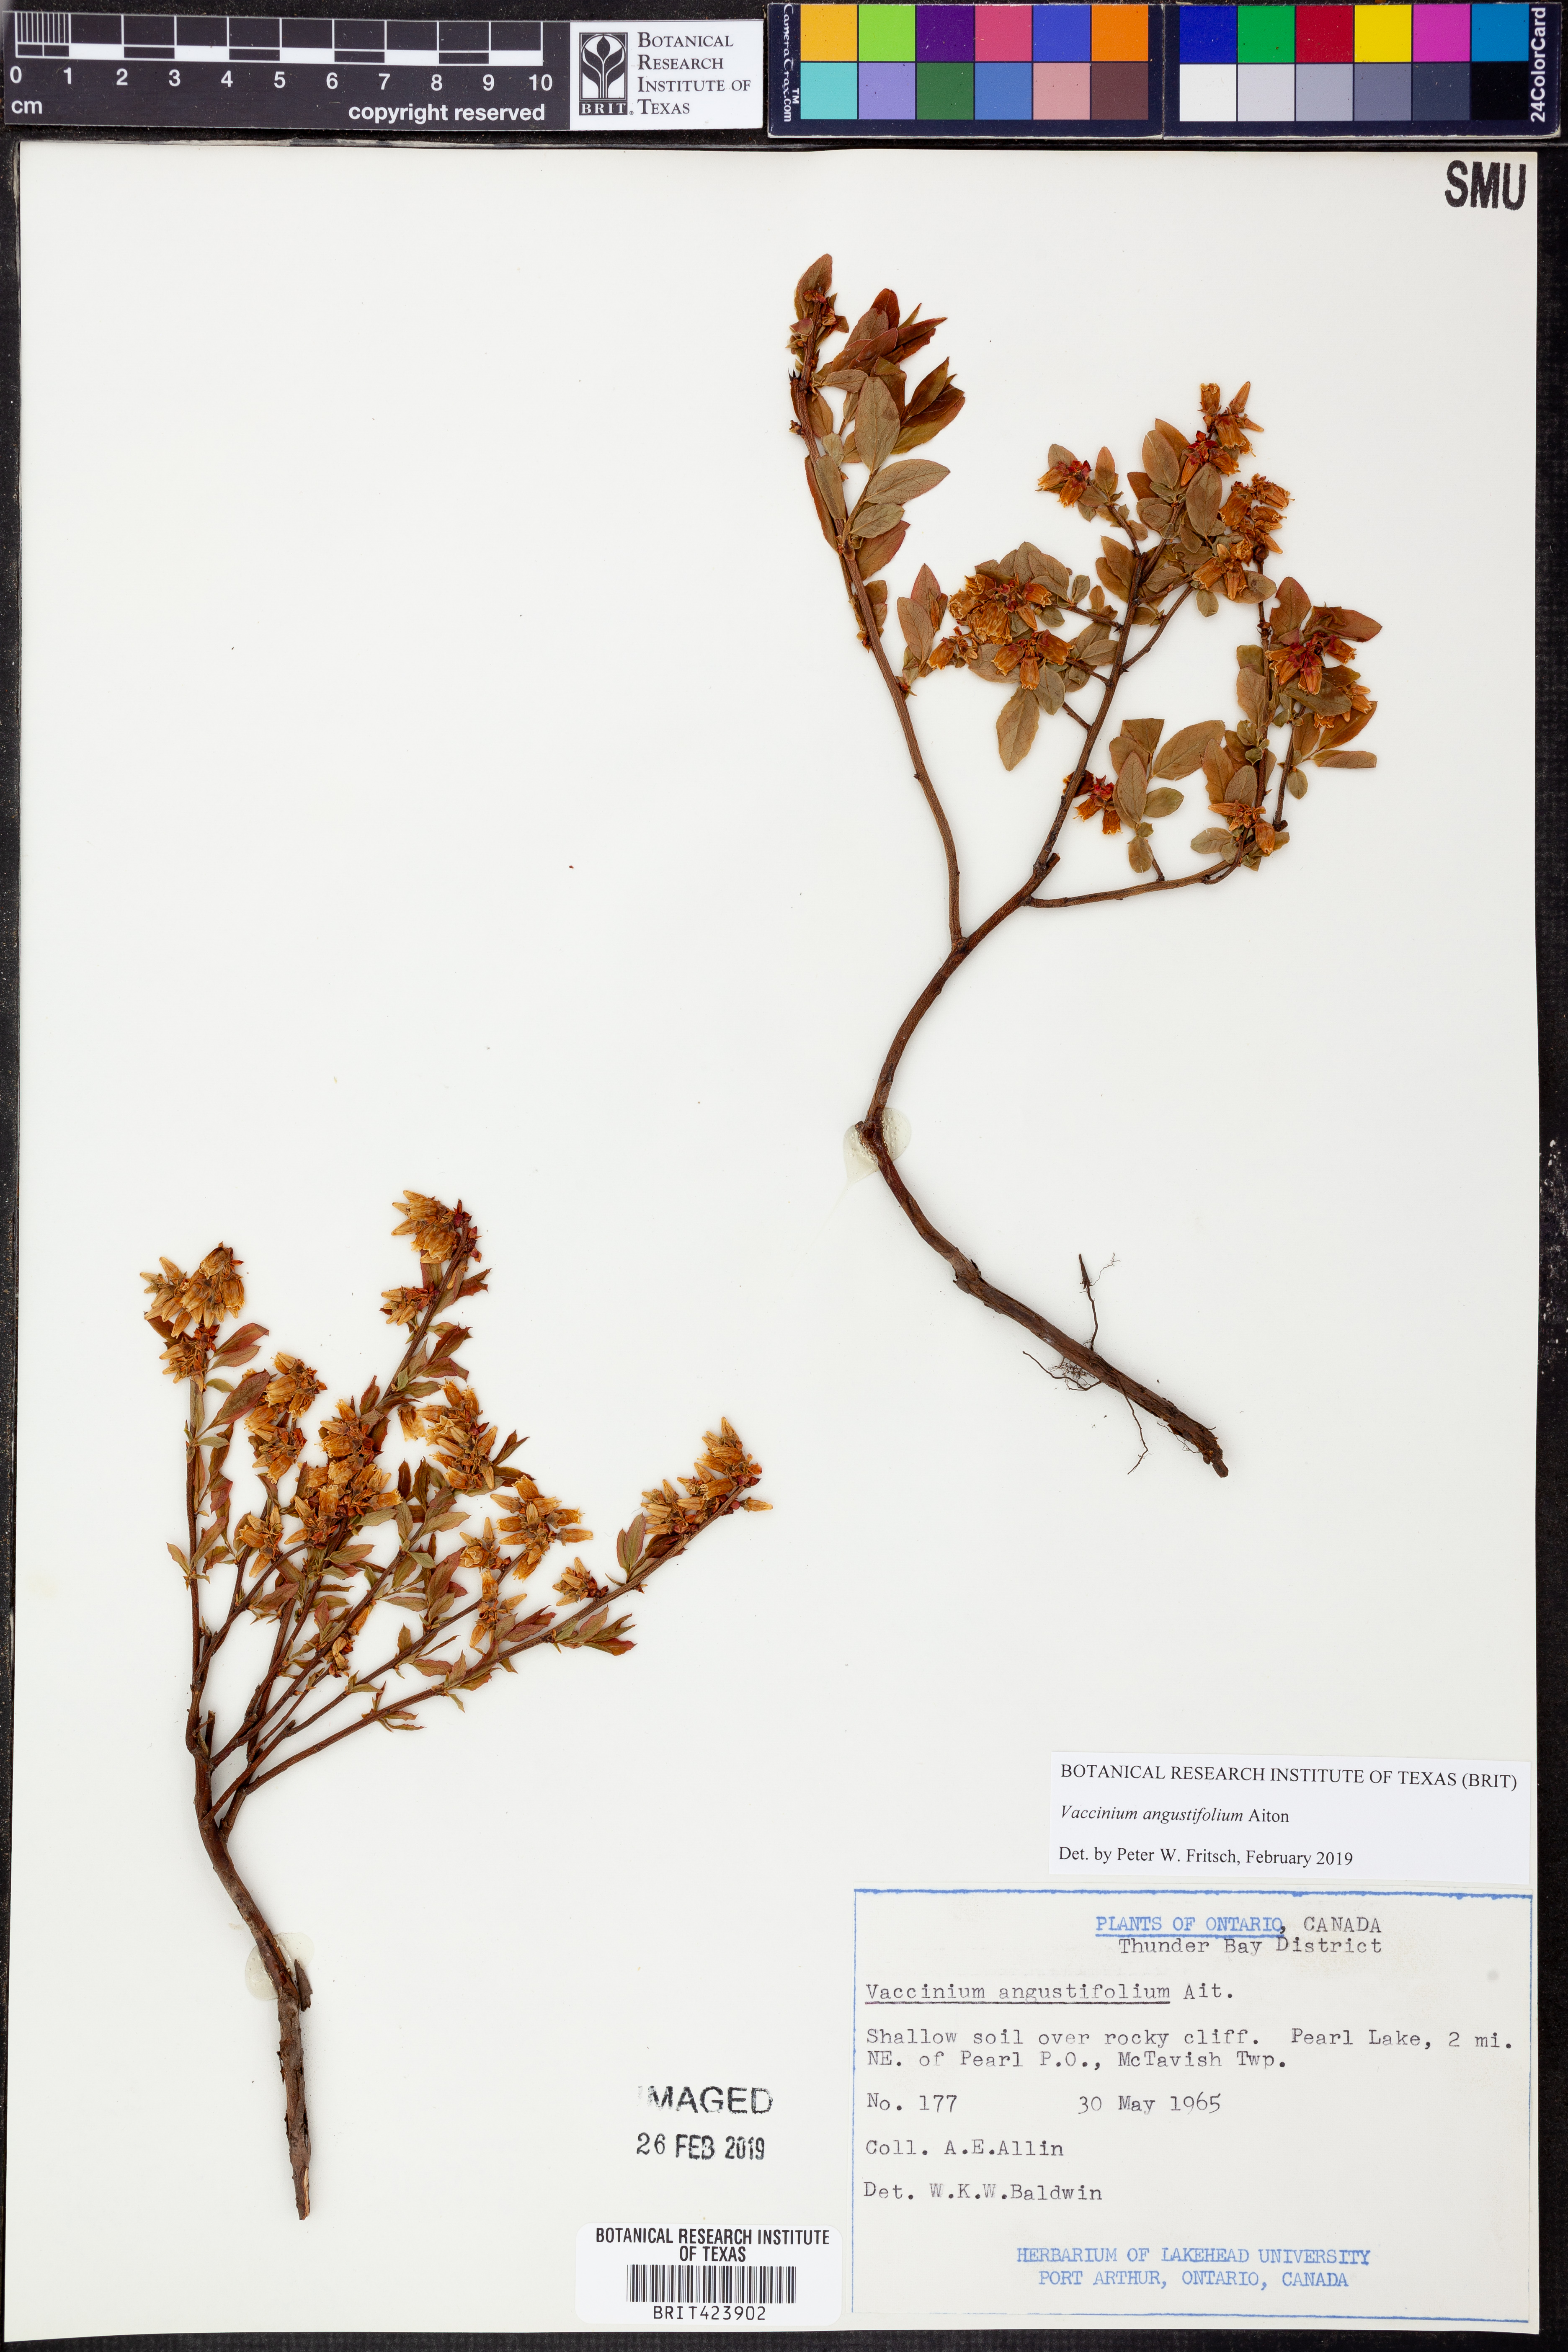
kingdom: Plantae
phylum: Tracheophyta
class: Magnoliopsida
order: Ericales
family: Ericaceae
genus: Vaccinium
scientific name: Vaccinium angustifolium
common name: Early lowbush blueberry
